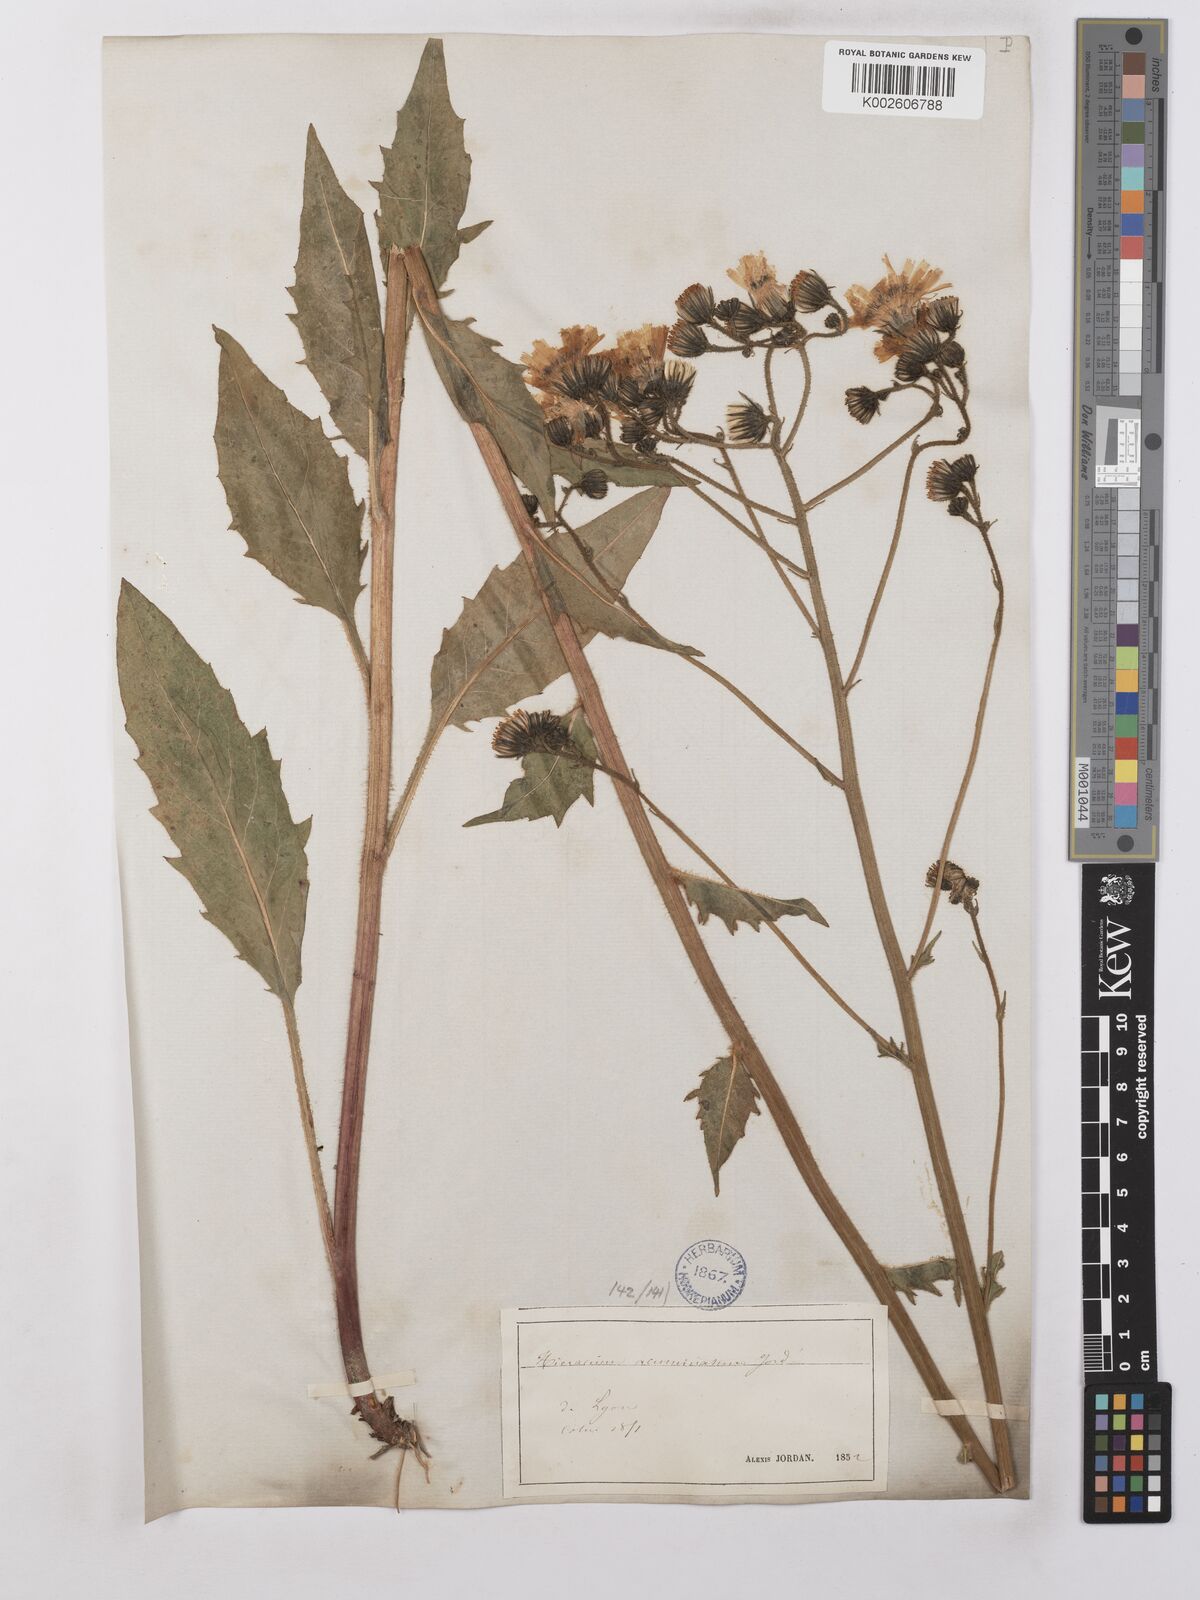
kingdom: Plantae
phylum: Tracheophyta
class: Magnoliopsida
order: Asterales
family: Asteraceae
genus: Hieracium
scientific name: Hieracium lachenalii
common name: Common hawkweed
